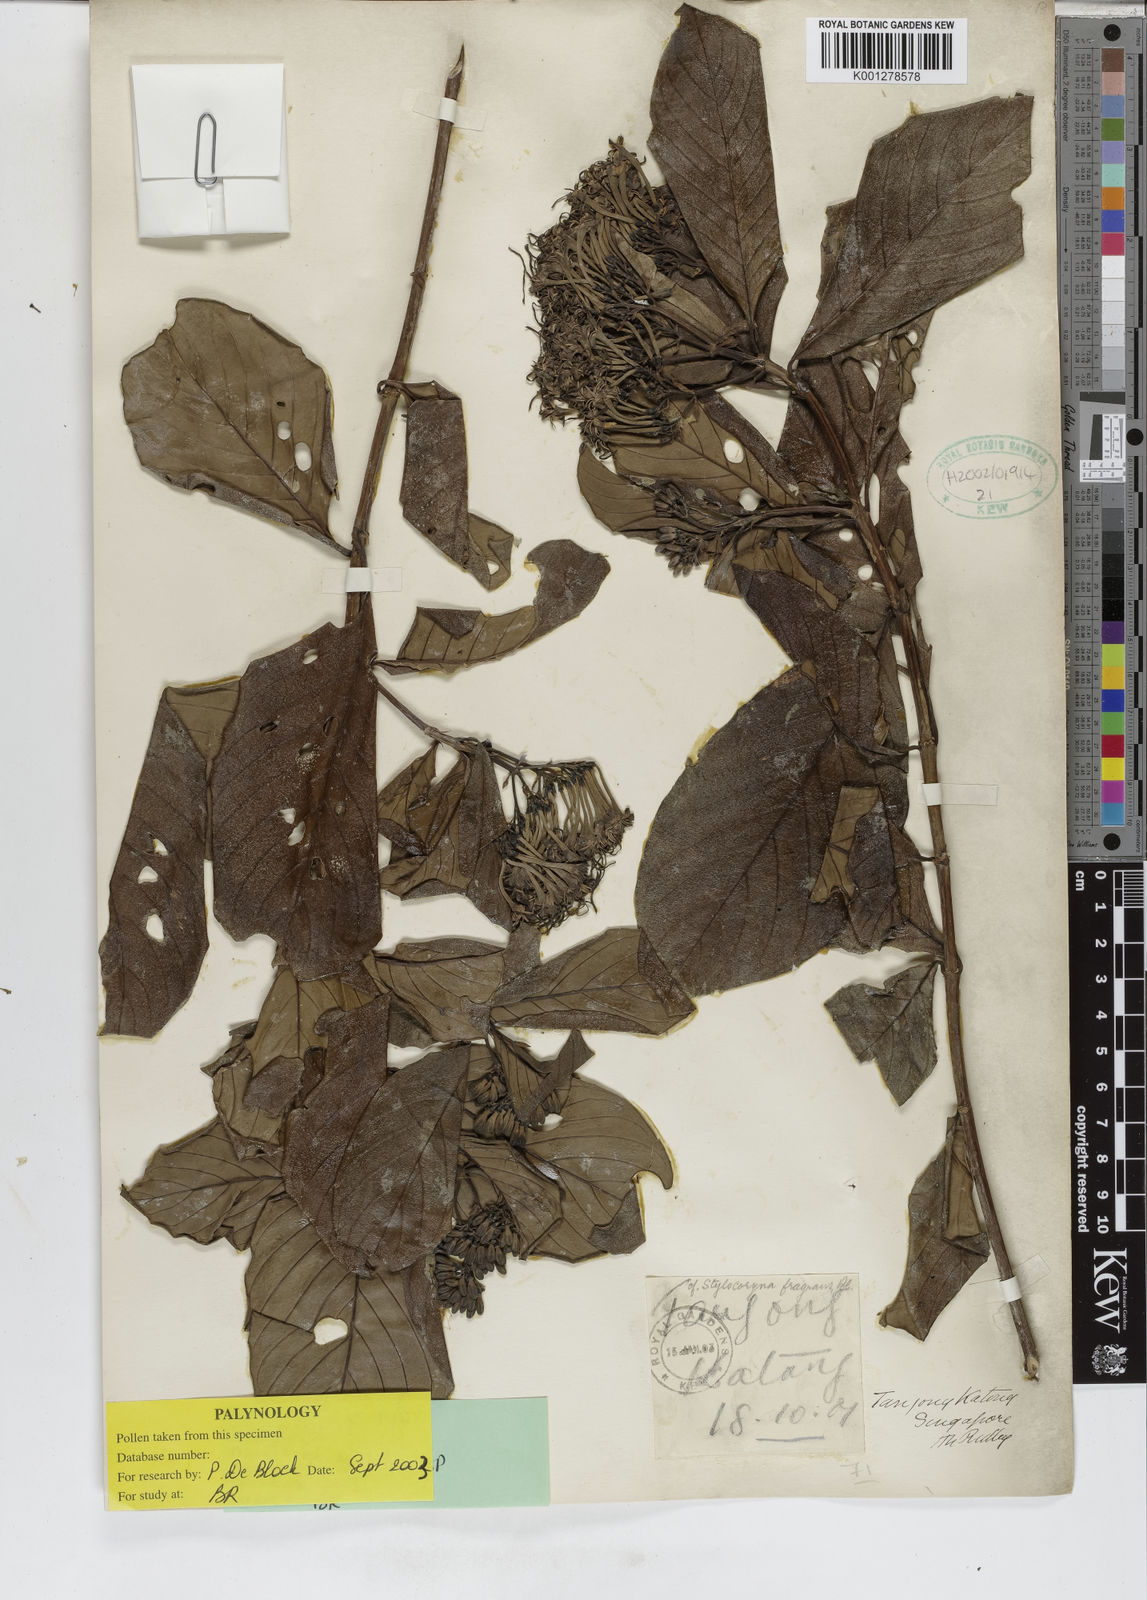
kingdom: Plantae
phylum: Tracheophyta
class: Magnoliopsida
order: Gentianales
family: Rubiaceae
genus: Tarenna
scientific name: Tarenna fragrans
